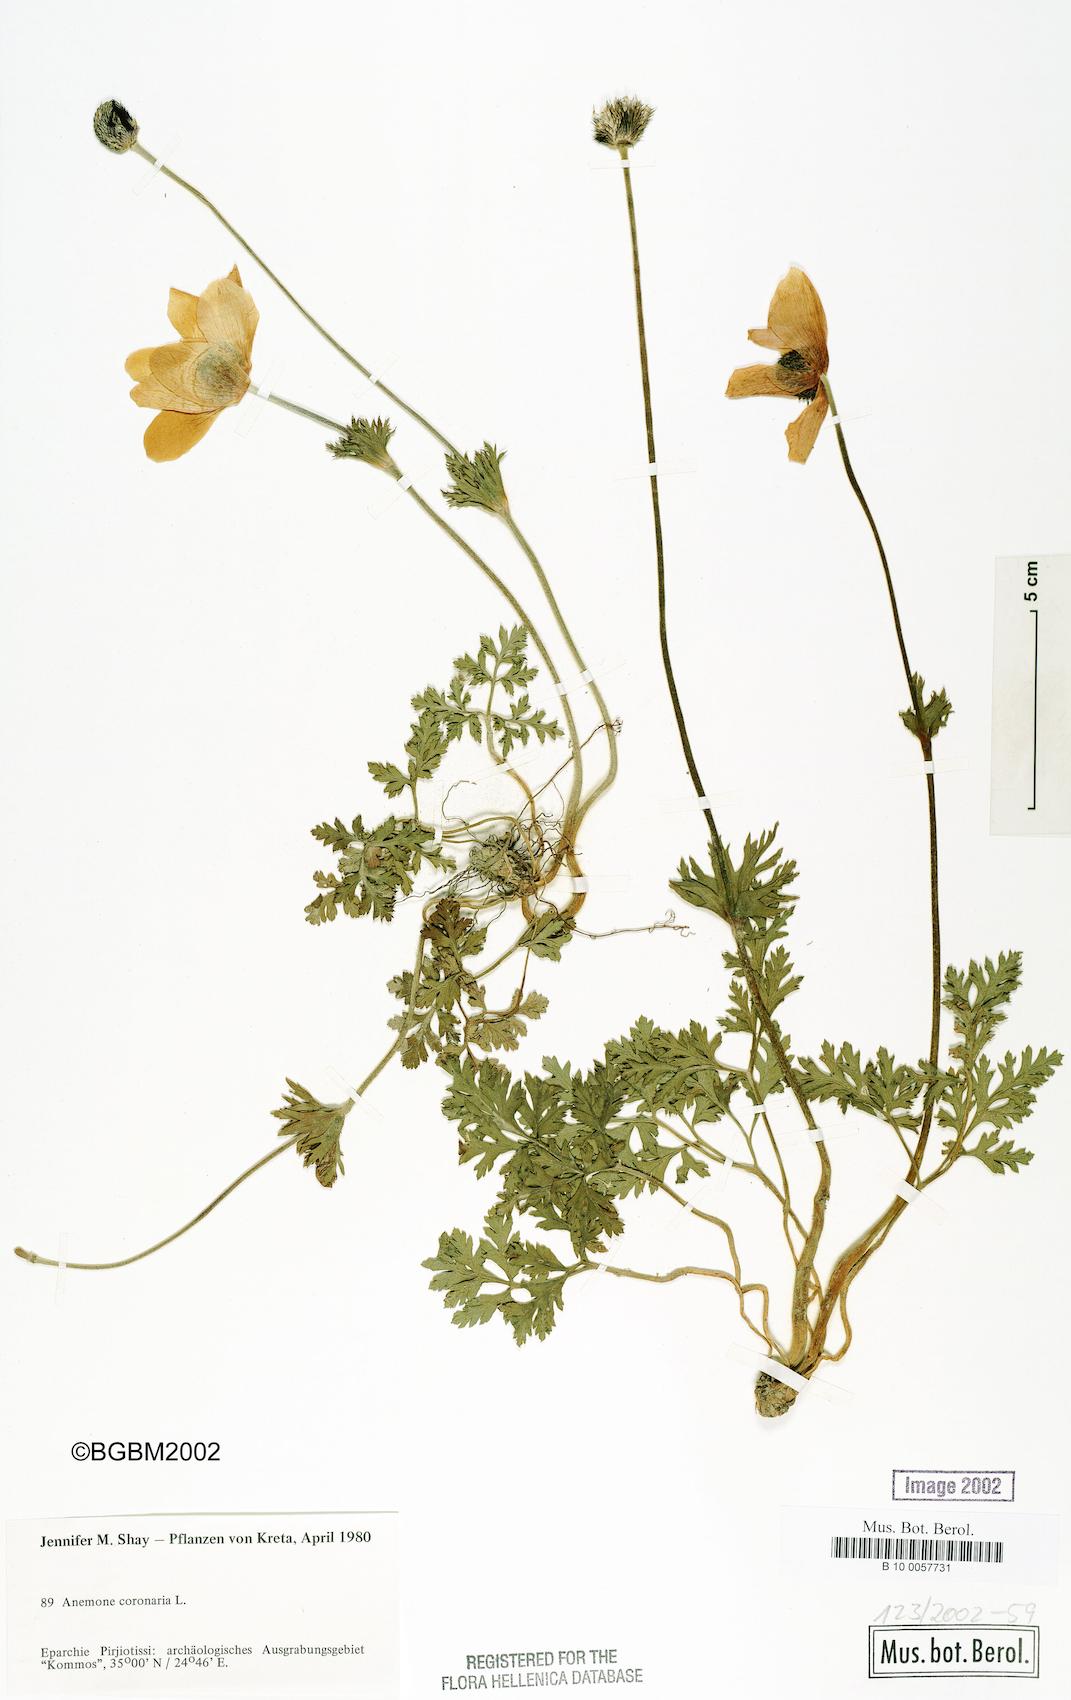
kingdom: Plantae
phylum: Tracheophyta
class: Magnoliopsida
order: Ranunculales
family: Ranunculaceae
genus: Anemone
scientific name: Anemone coronaria
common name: Poppy anemone
